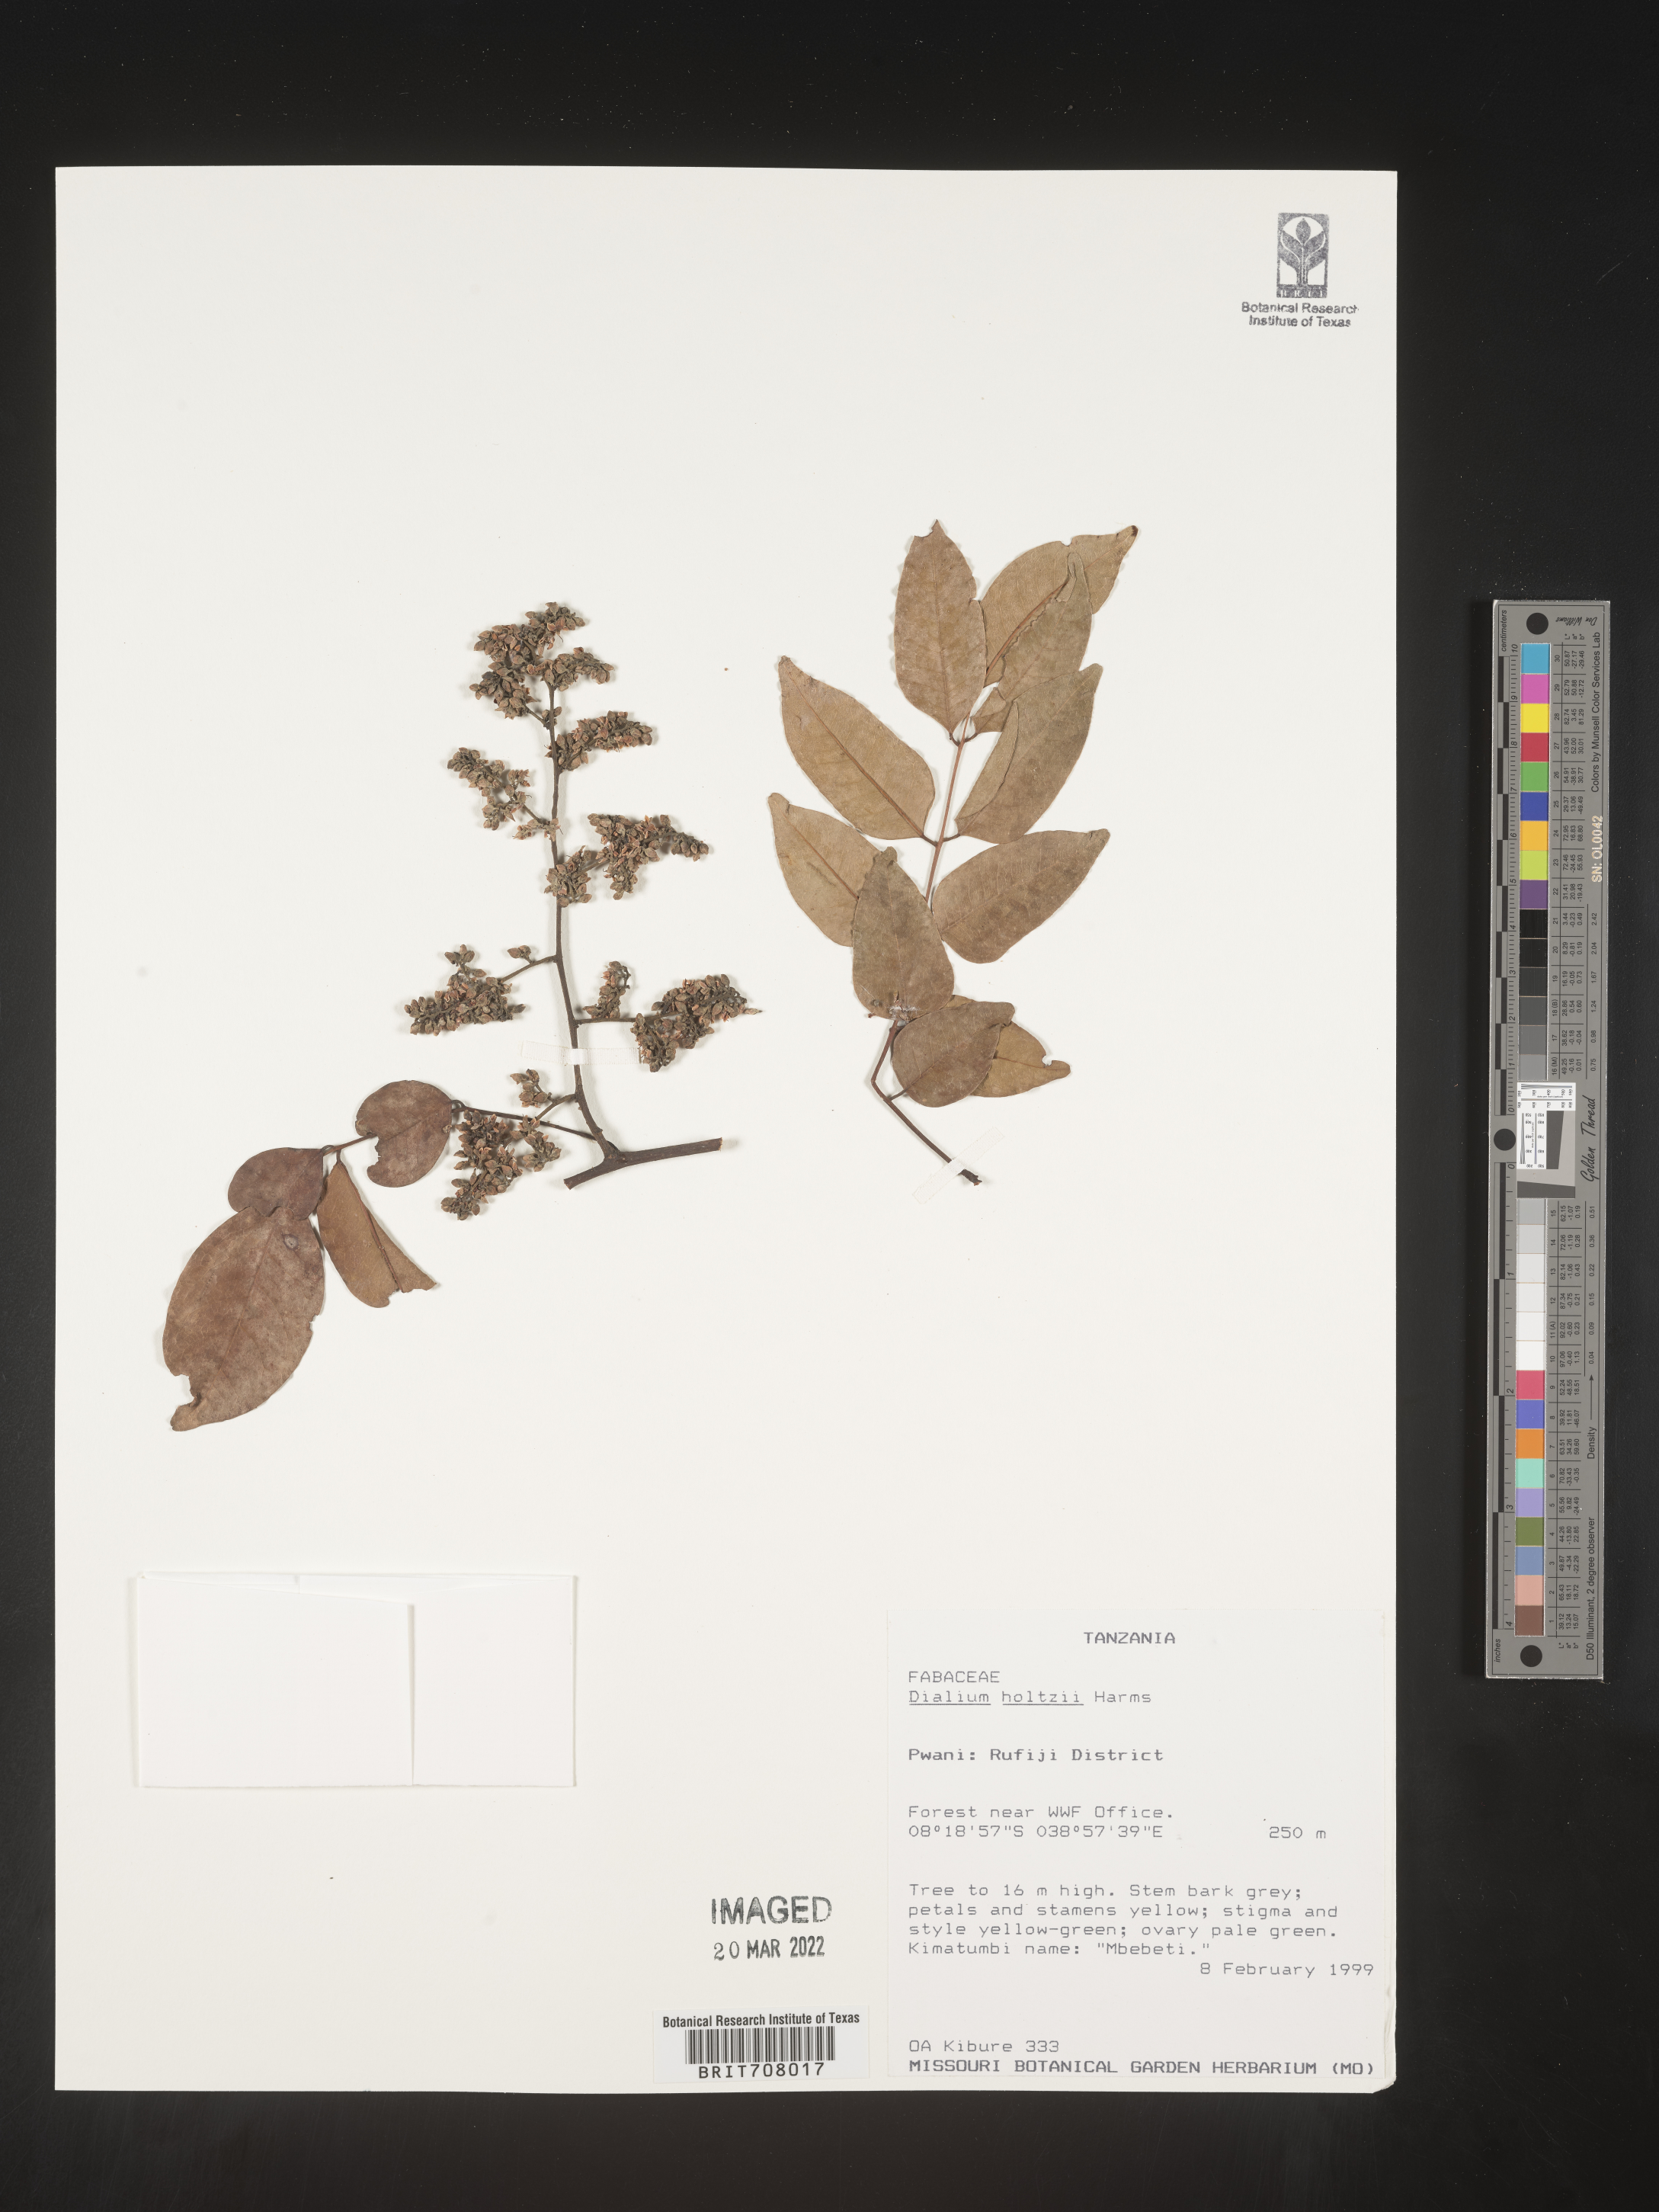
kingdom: Plantae
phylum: Tracheophyta
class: Magnoliopsida
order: Fabales
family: Fabaceae
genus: Dialium
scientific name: Dialium
